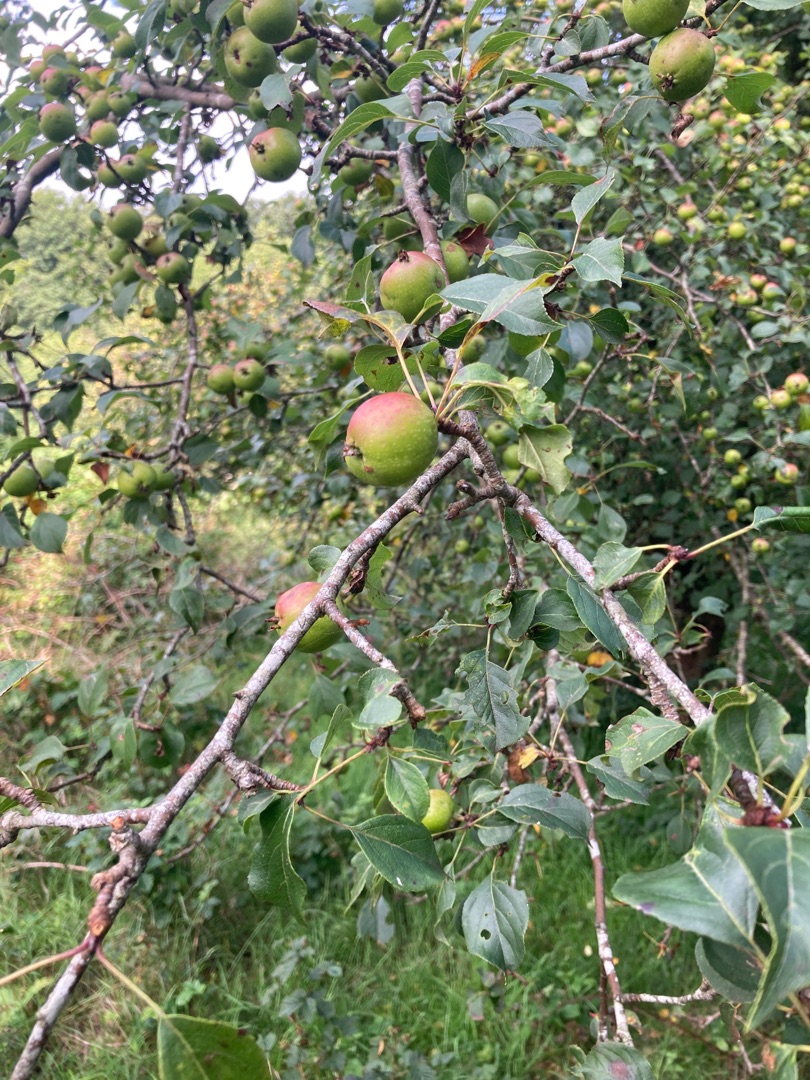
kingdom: Plantae
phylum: Tracheophyta
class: Magnoliopsida
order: Rosales
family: Rosaceae
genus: Malus
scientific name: Malus domestica
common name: Sød-æble
